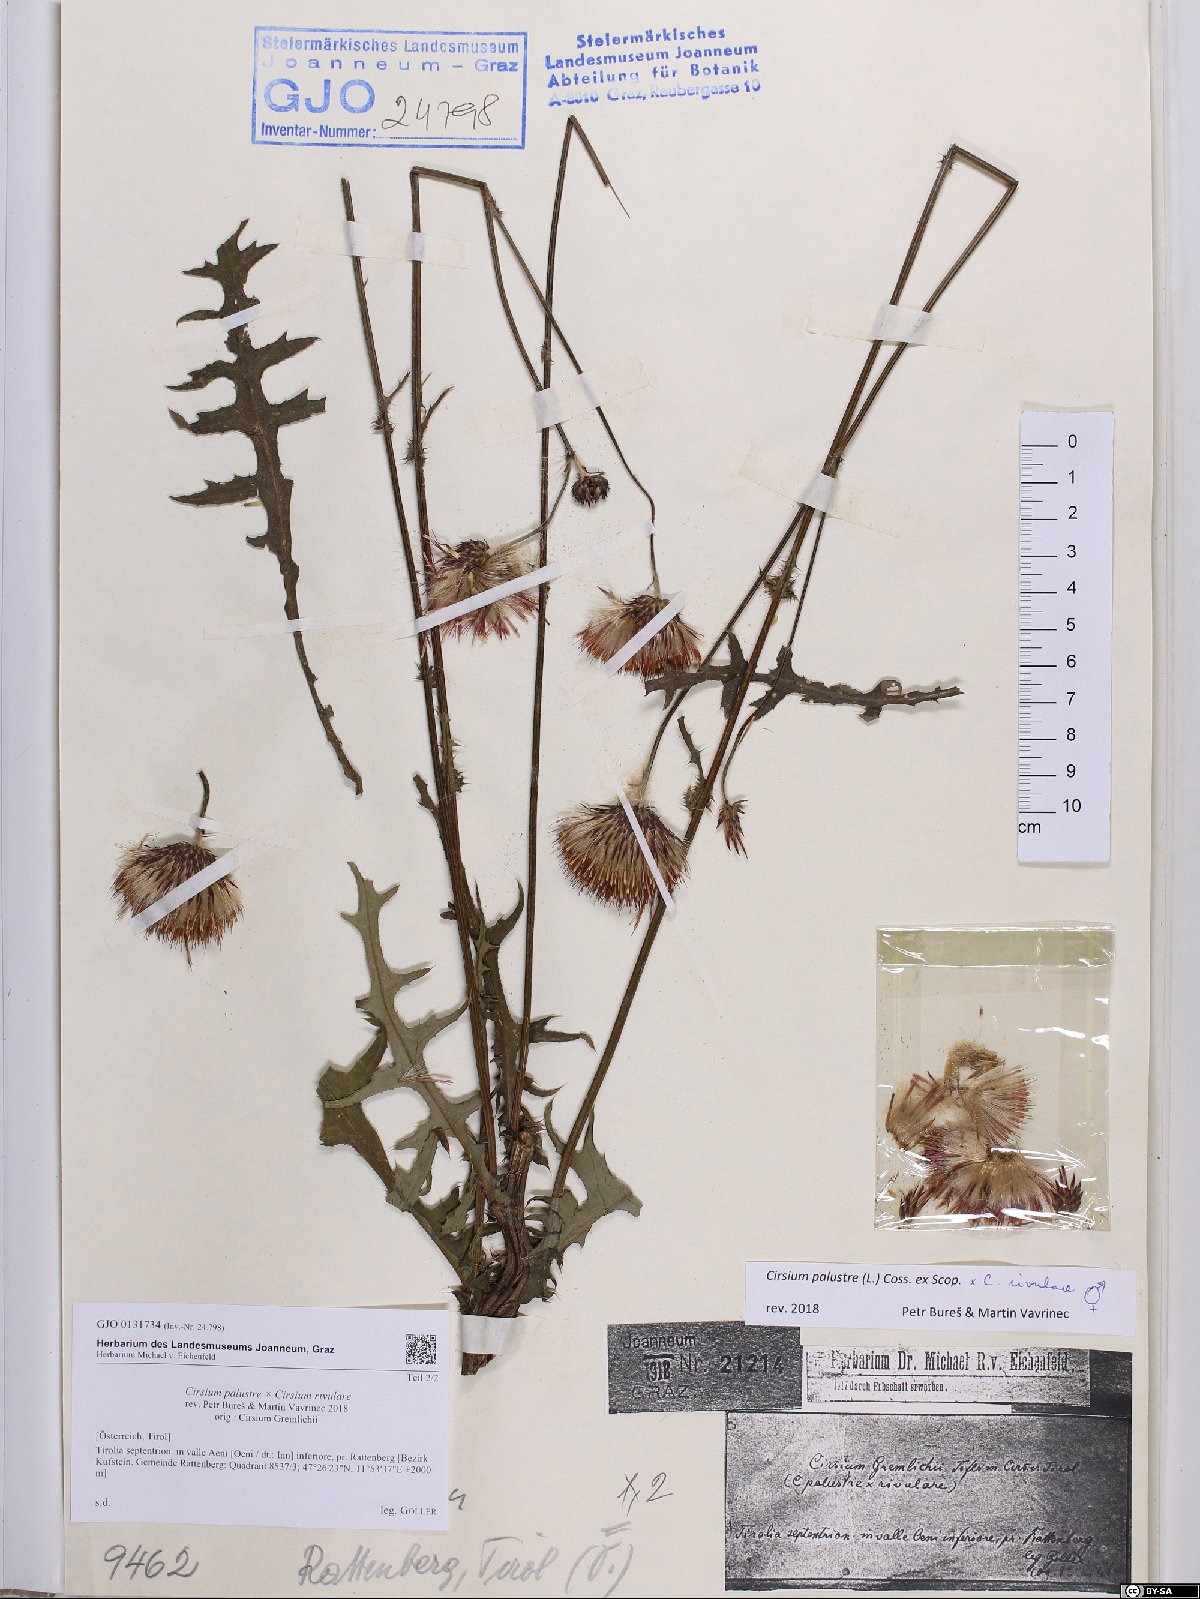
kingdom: Plantae
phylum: Tracheophyta
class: Magnoliopsida
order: Asterales
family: Asteraceae
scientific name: Asteraceae
